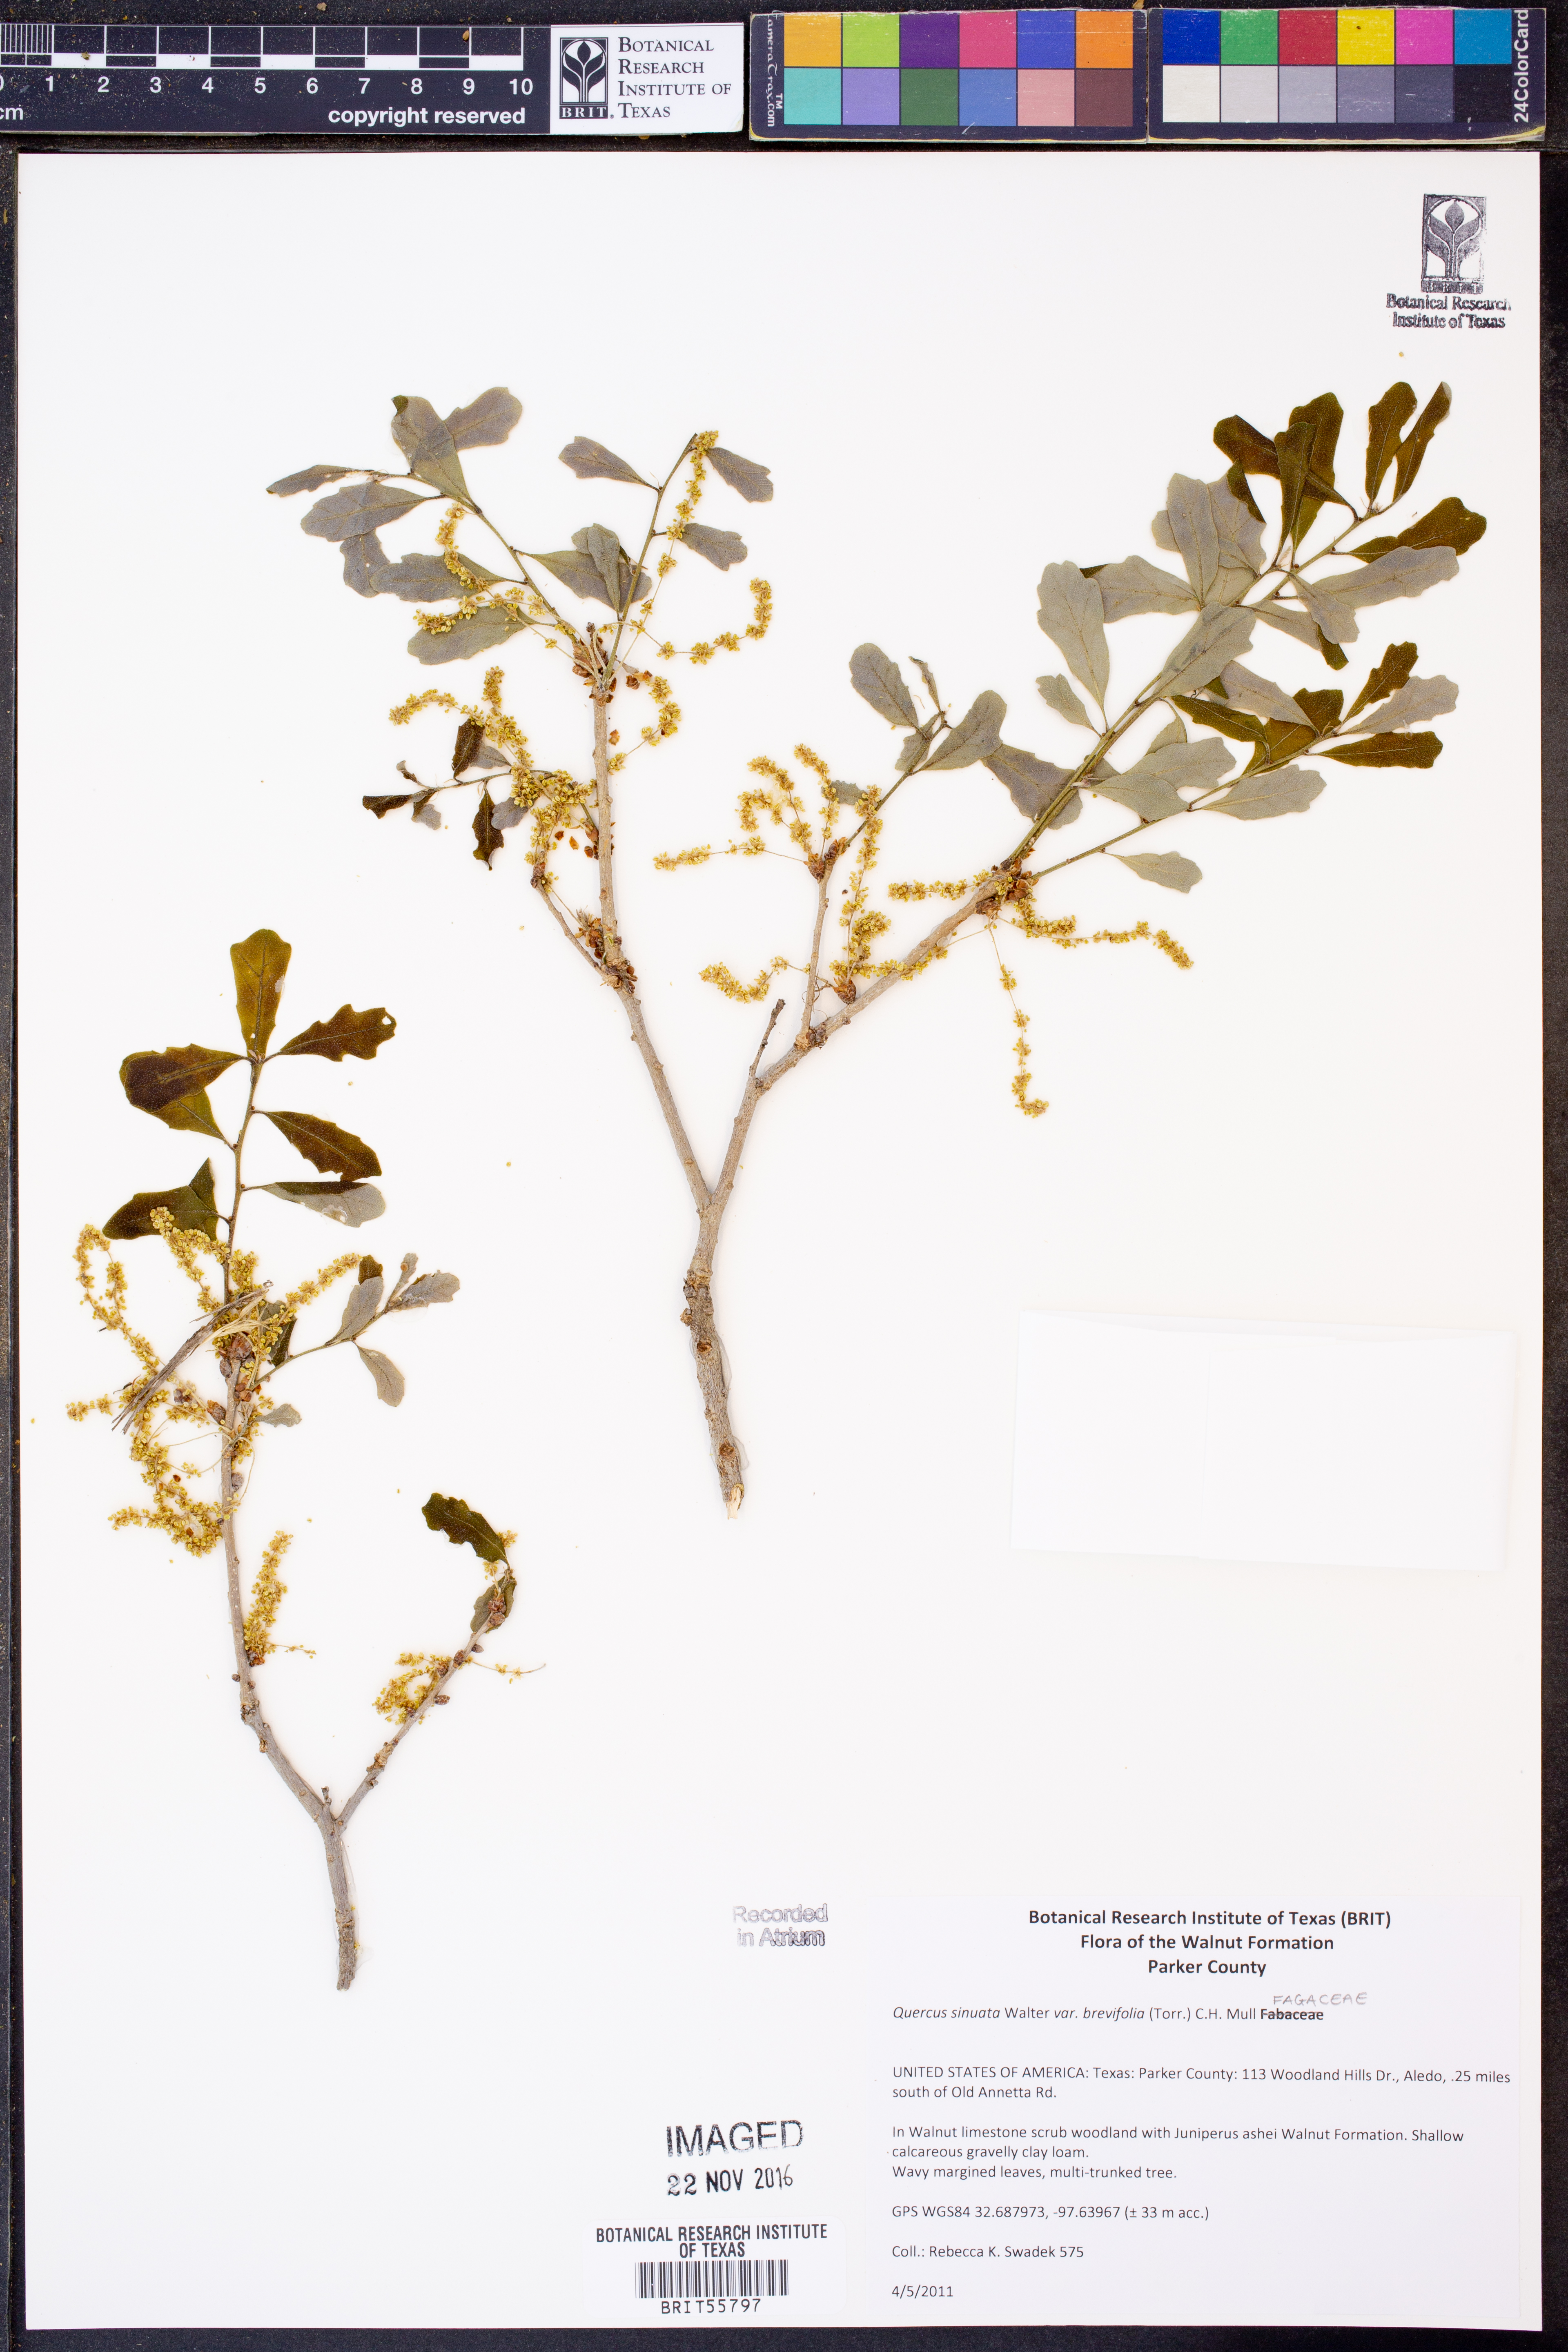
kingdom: Plantae
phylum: Tracheophyta
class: Magnoliopsida
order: Fagales
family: Fagaceae
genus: Quercus
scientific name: Quercus sinuata
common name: Durand oak
